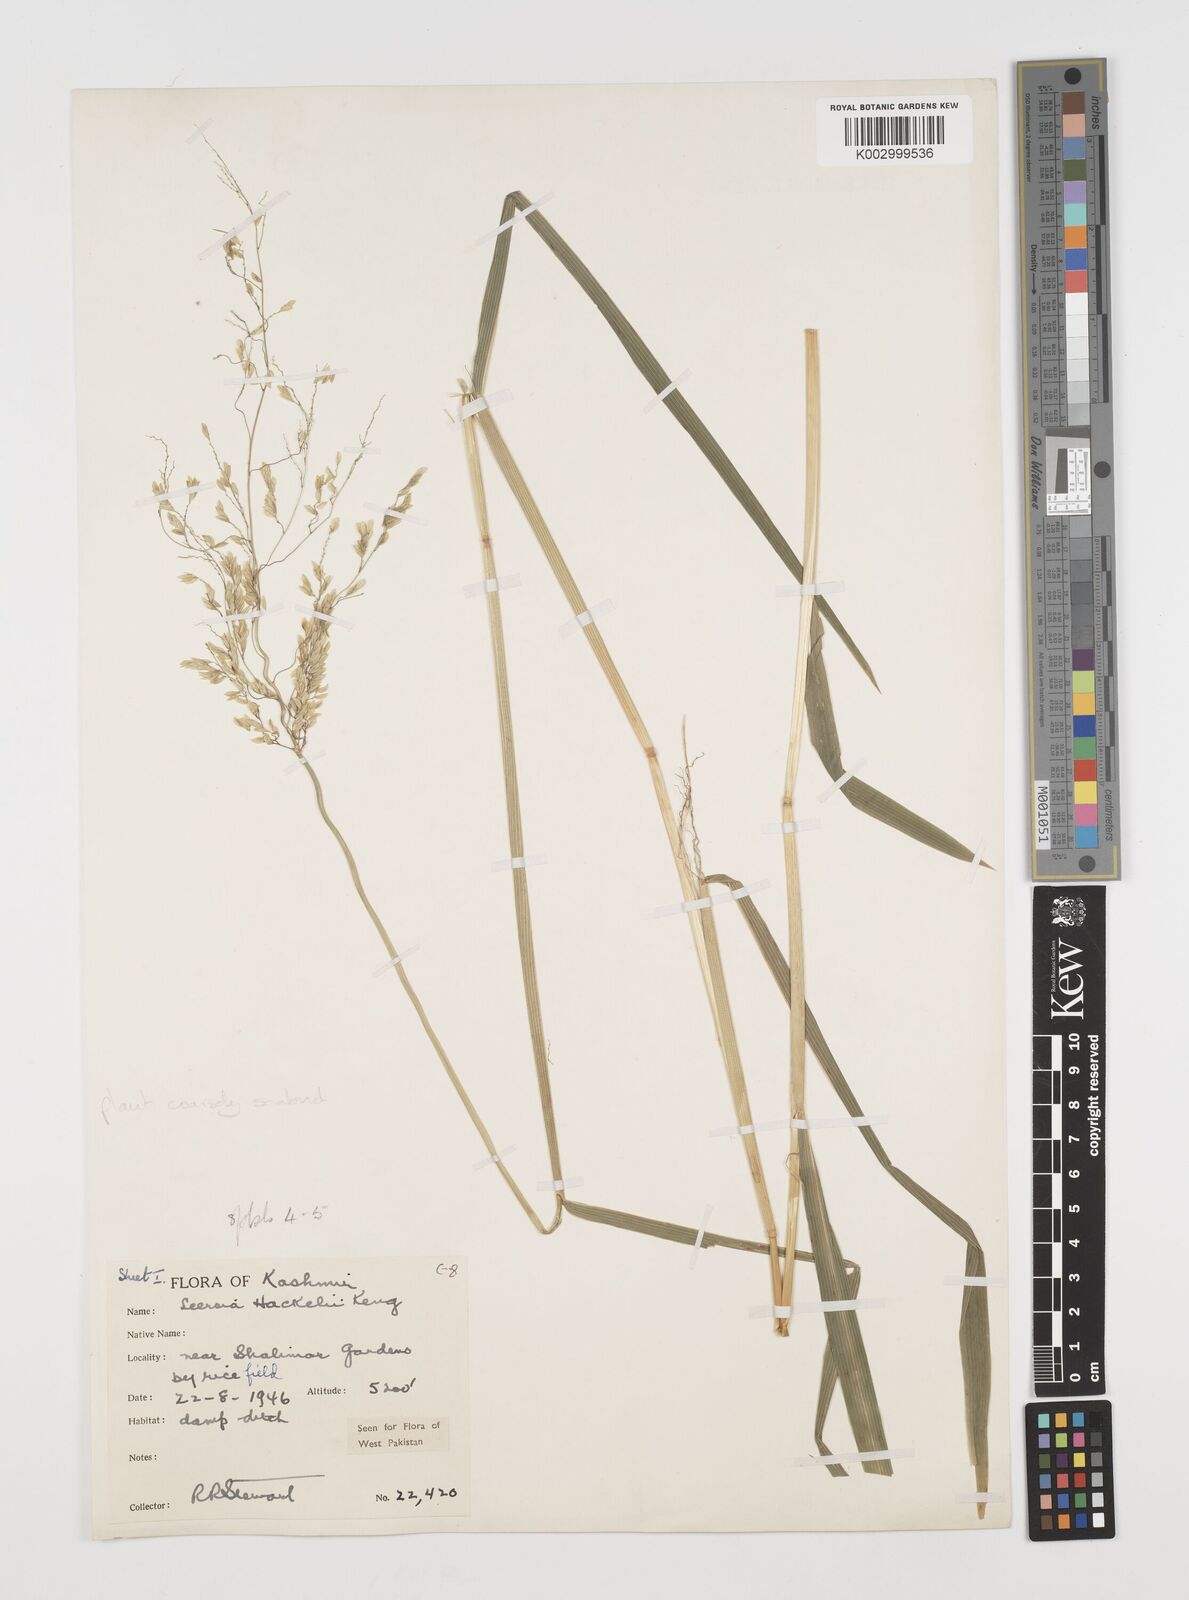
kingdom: Plantae
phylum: Tracheophyta
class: Liliopsida
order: Poales
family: Poaceae
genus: Leersia
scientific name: Leersia oryzoides
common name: Cut-grass
